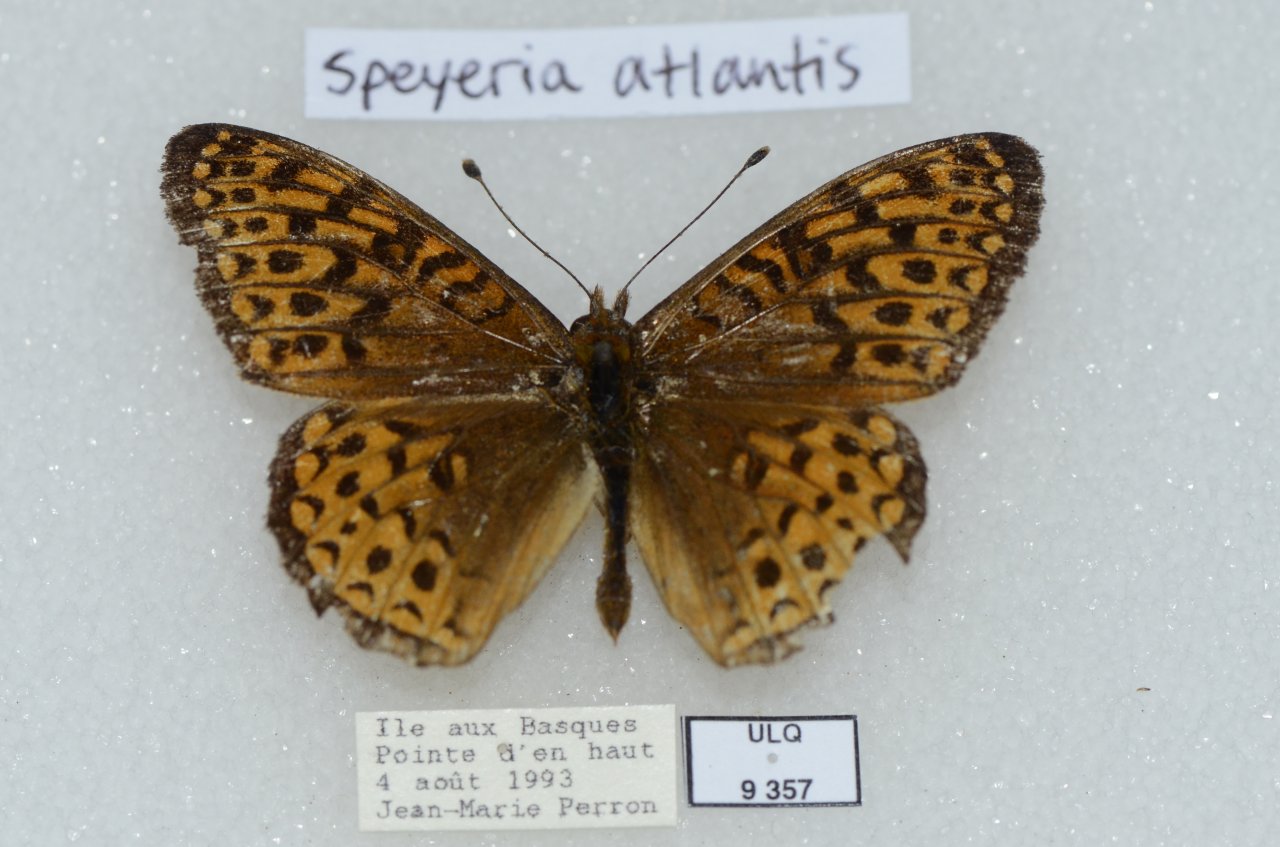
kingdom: Animalia
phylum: Arthropoda
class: Insecta
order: Lepidoptera
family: Nymphalidae
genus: Speyeria
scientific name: Speyeria atlantis
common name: Atlantis Fritillary
